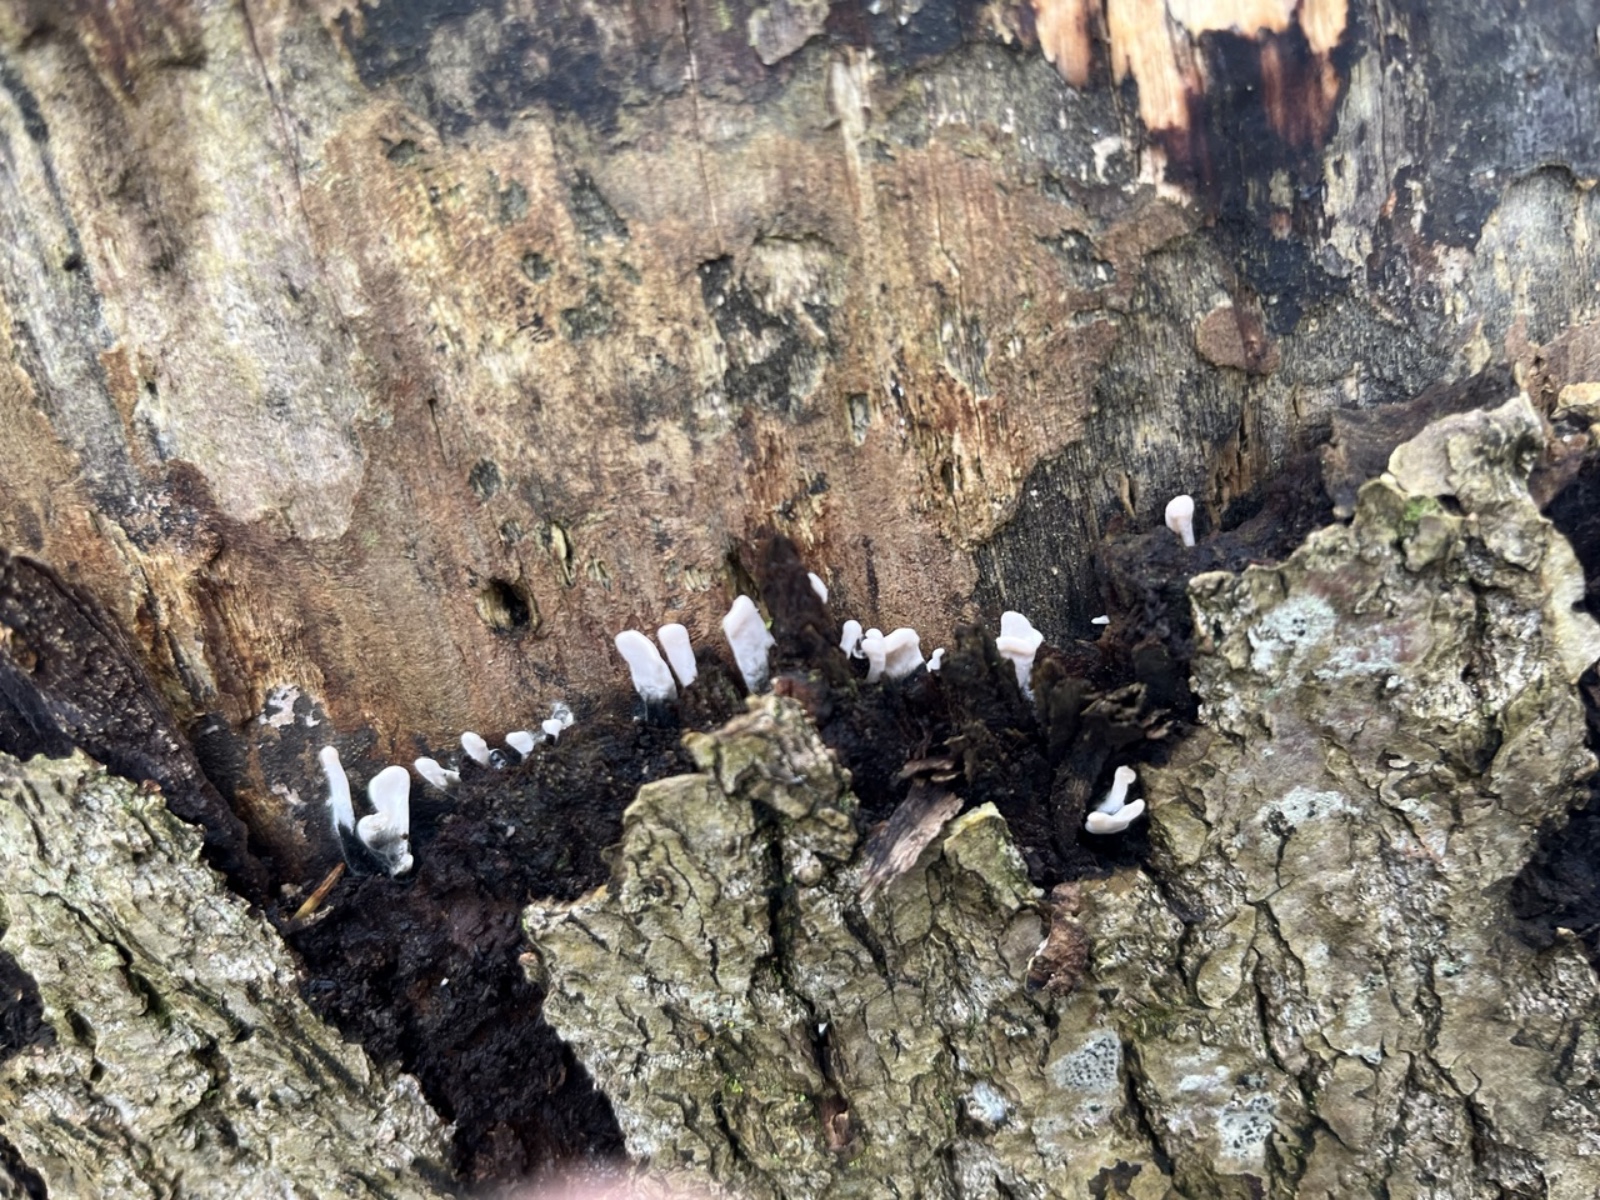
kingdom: Fungi
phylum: Ascomycota
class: Sordariomycetes
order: Xylariales
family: Xylariaceae
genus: Xylaria
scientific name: Xylaria hypoxylon
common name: grenet stødsvamp
